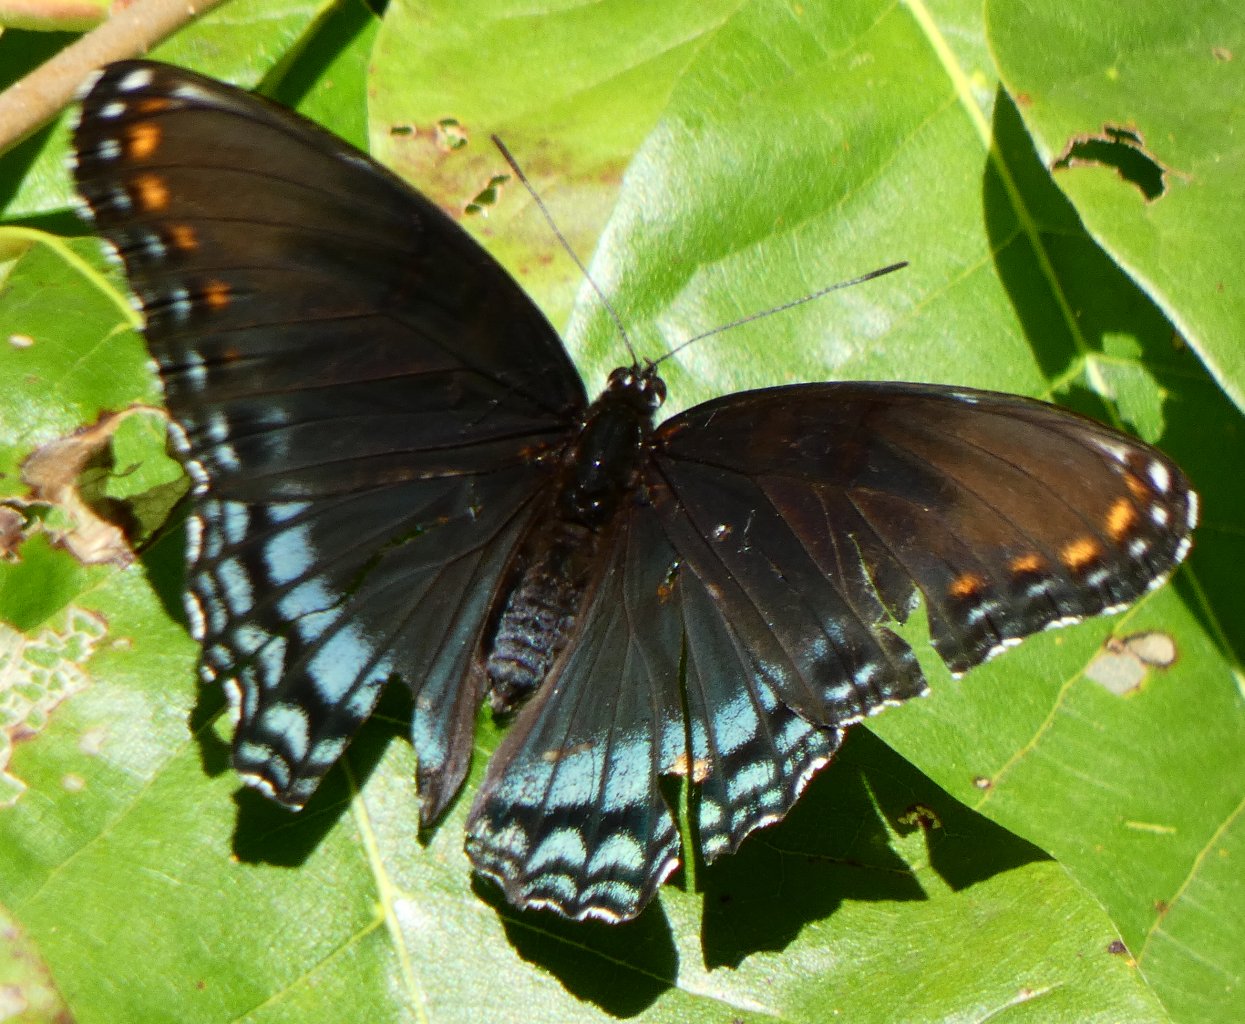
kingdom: Animalia
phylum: Arthropoda
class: Insecta
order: Lepidoptera
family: Nymphalidae
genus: Limenitis
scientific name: Limenitis astyanax
